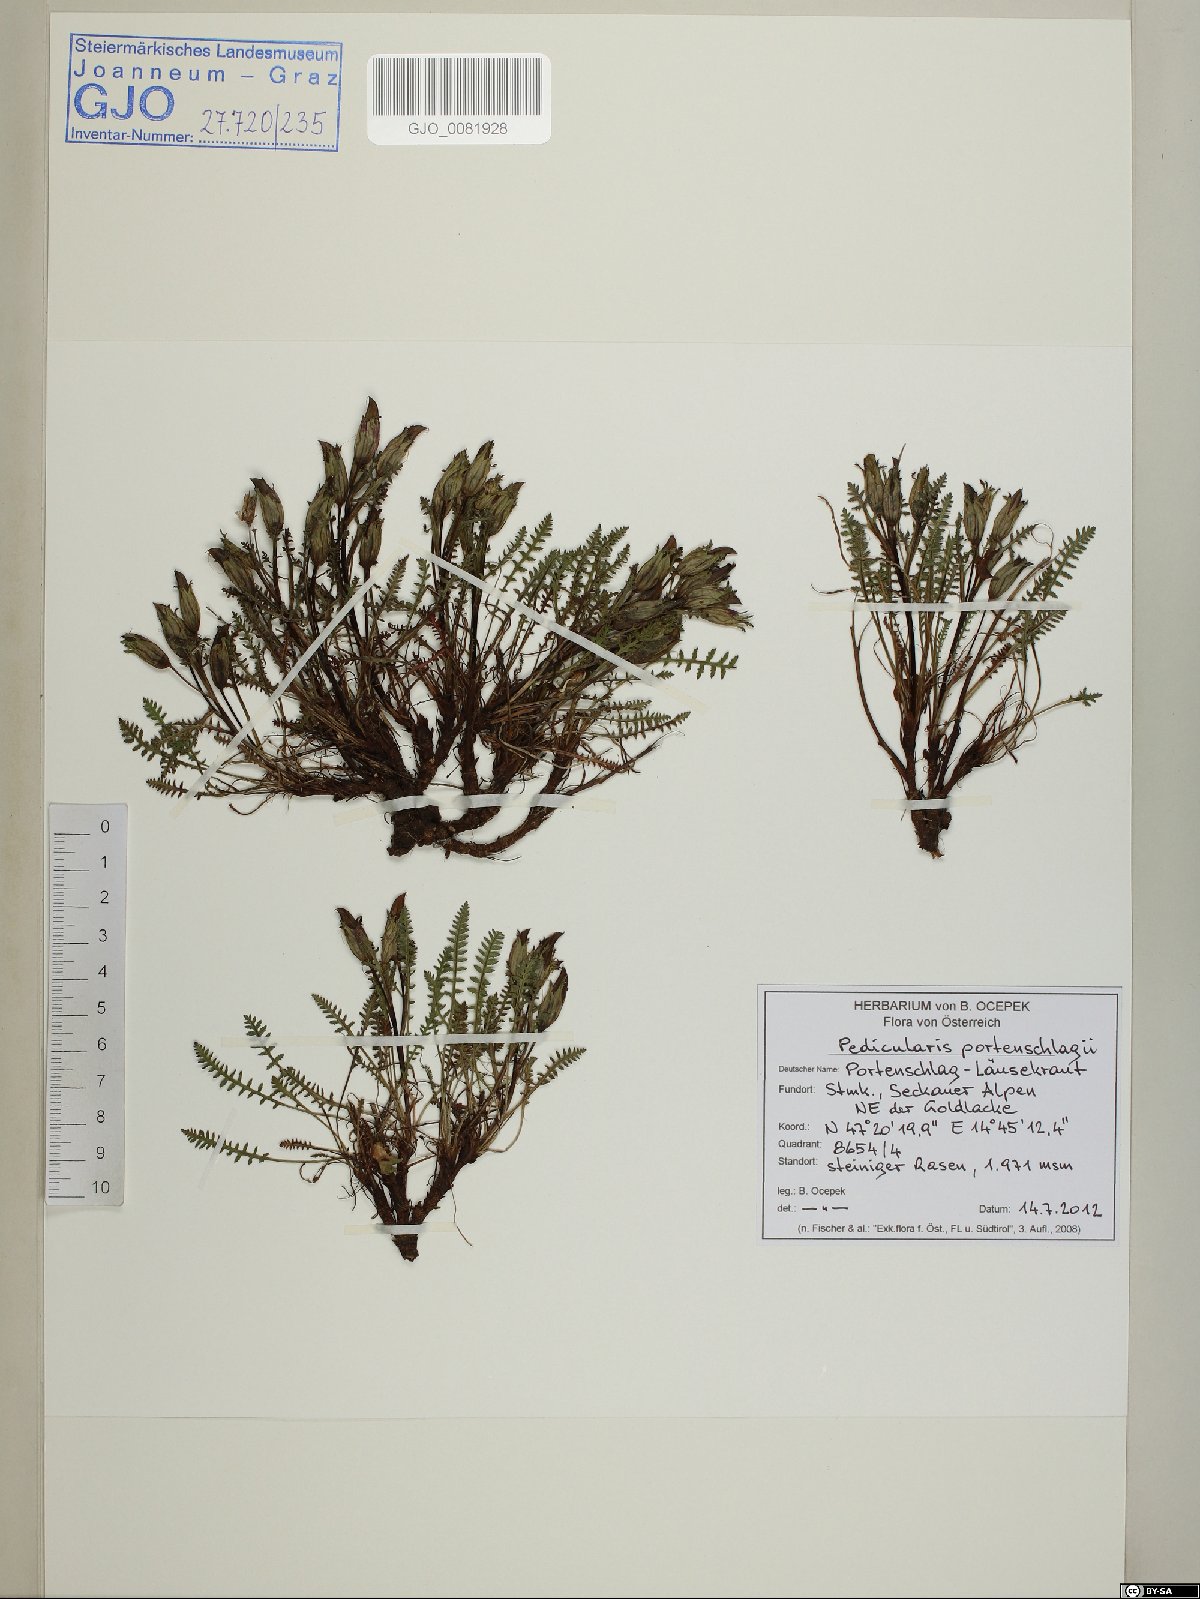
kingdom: Plantae
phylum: Tracheophyta
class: Magnoliopsida
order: Lamiales
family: Orobanchaceae
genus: Pedicularis
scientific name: Pedicularis portenschlagii
